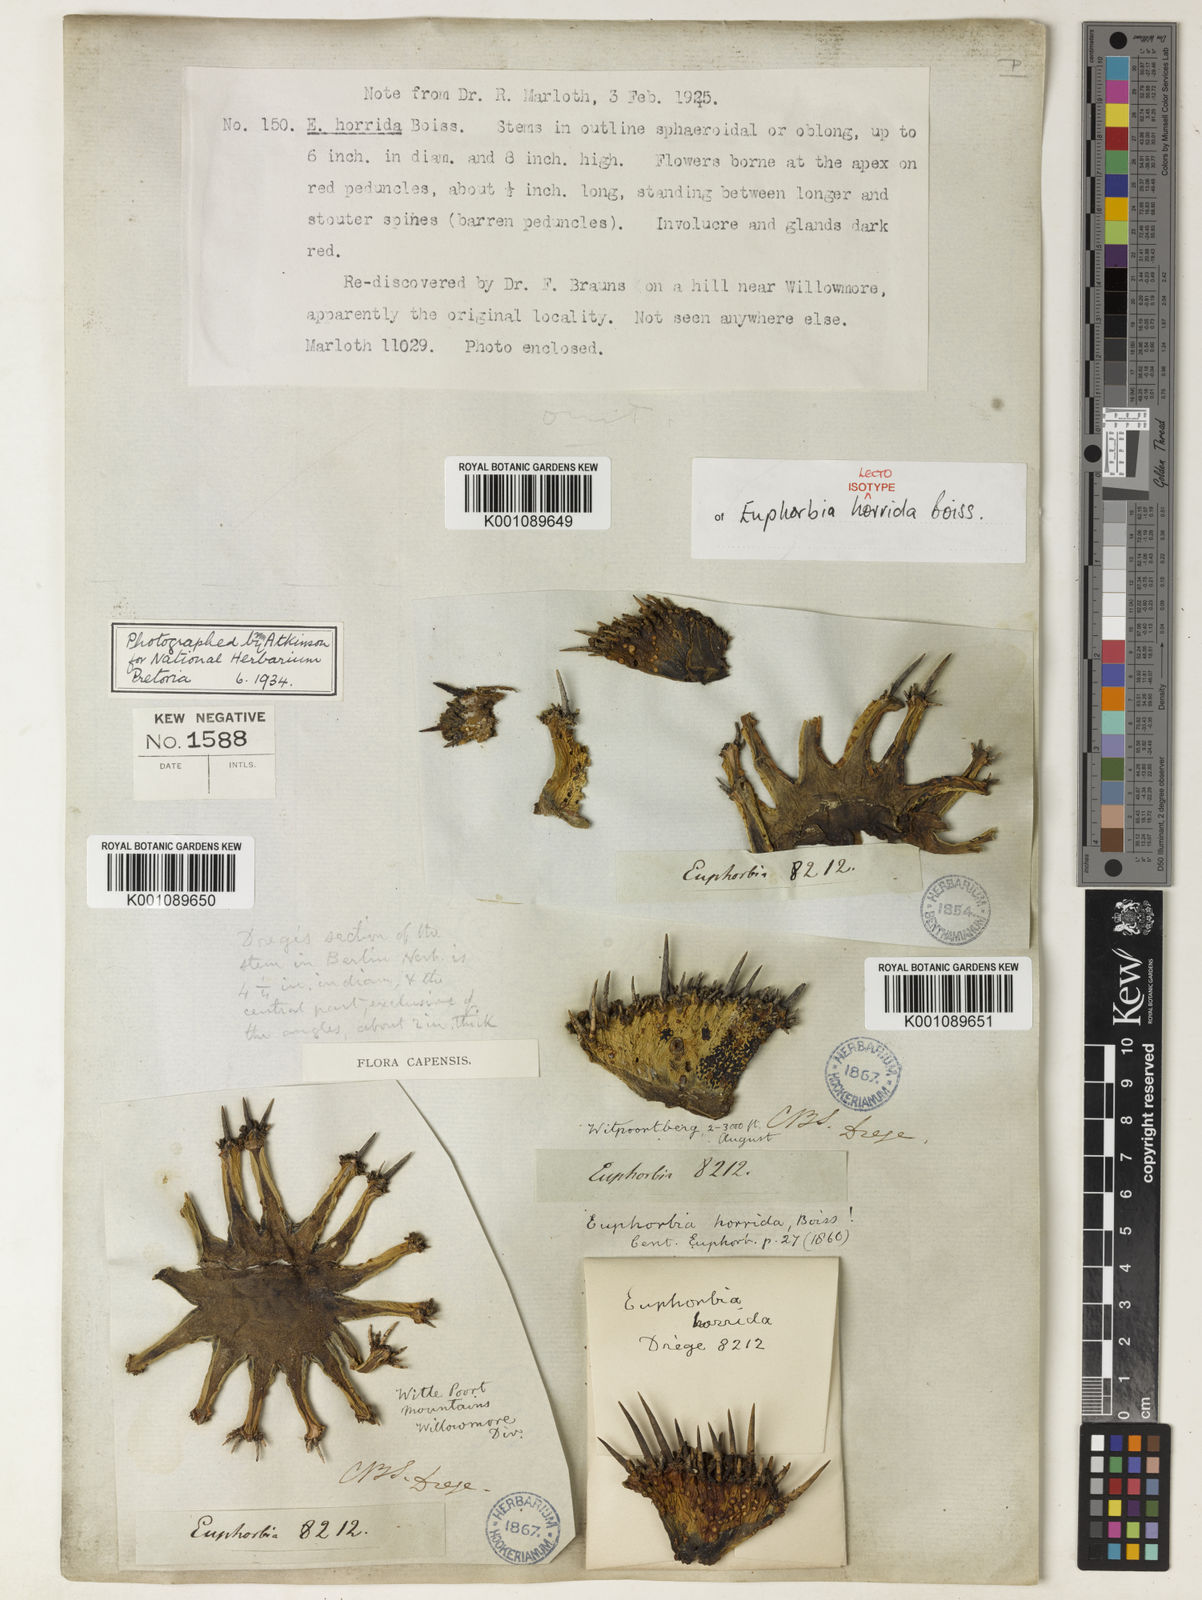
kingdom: Plantae
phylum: Tracheophyta
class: Magnoliopsida
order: Malpighiales
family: Euphorbiaceae
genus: Euphorbia
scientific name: Euphorbia polygona
